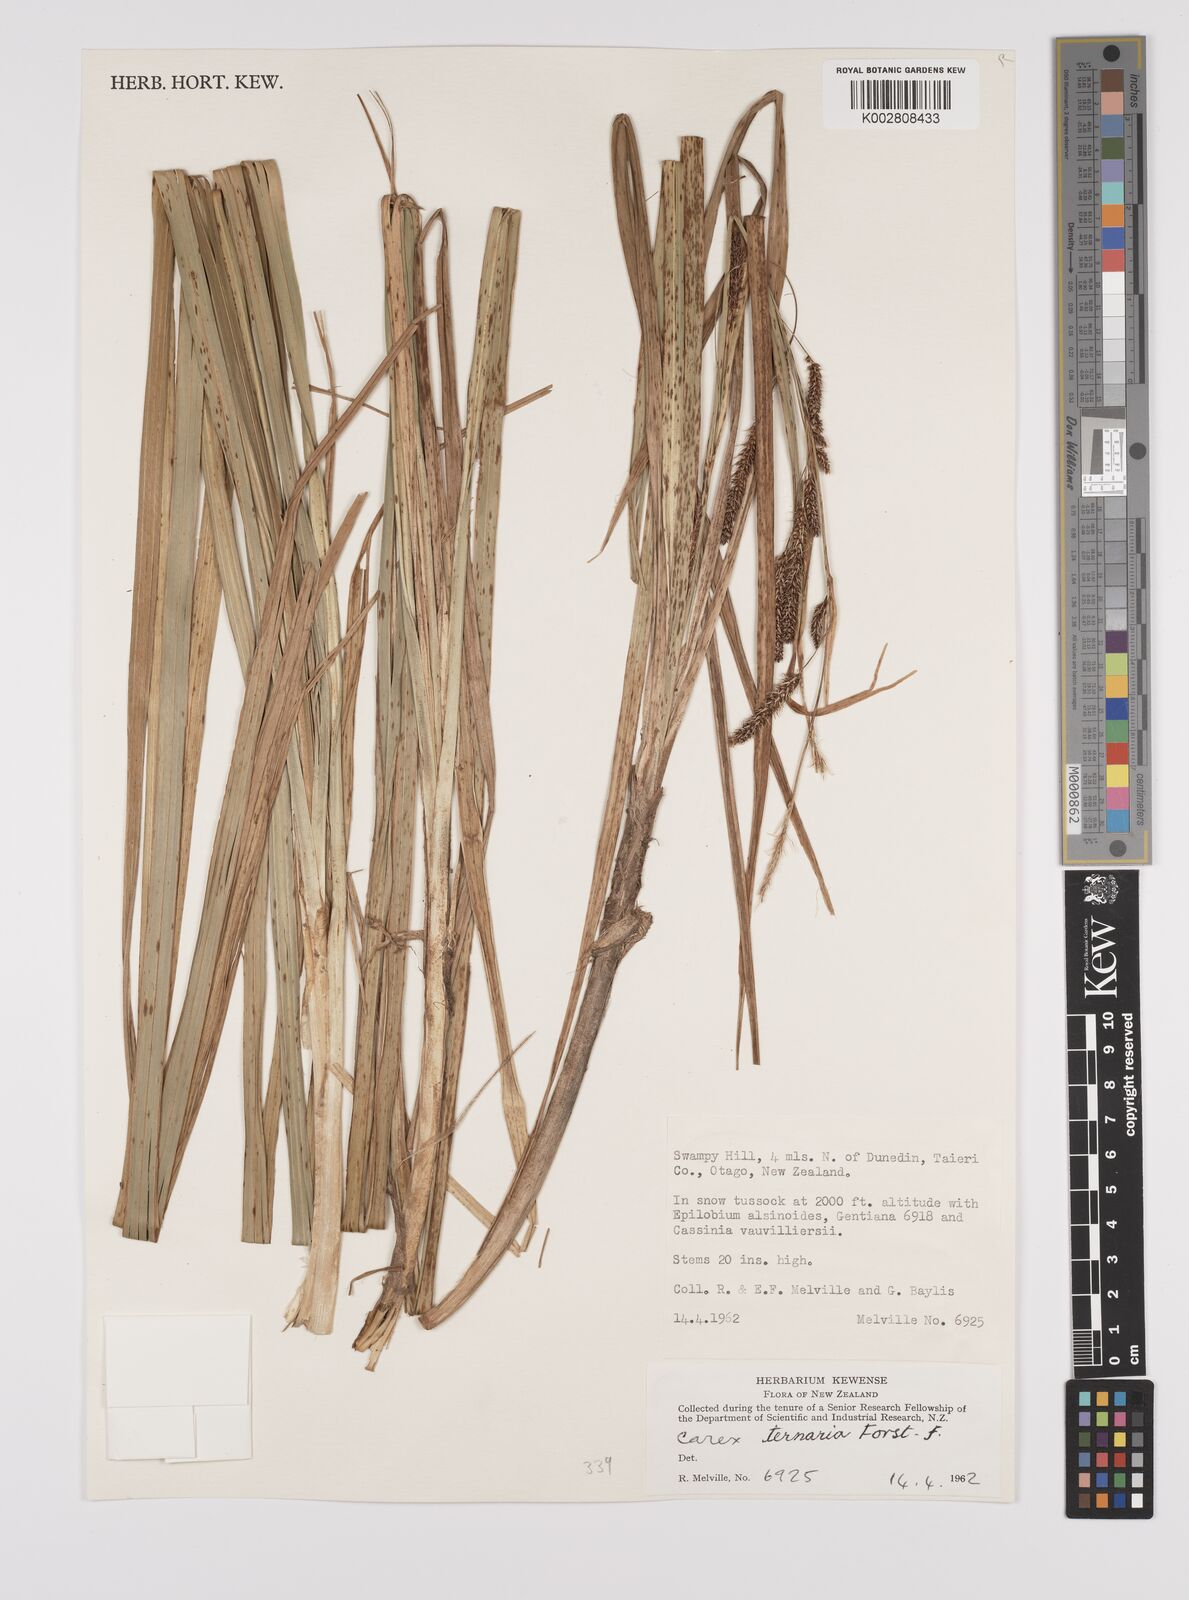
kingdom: Plantae
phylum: Tracheophyta
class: Liliopsida
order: Poales
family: Cyperaceae
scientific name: Cyperaceae
